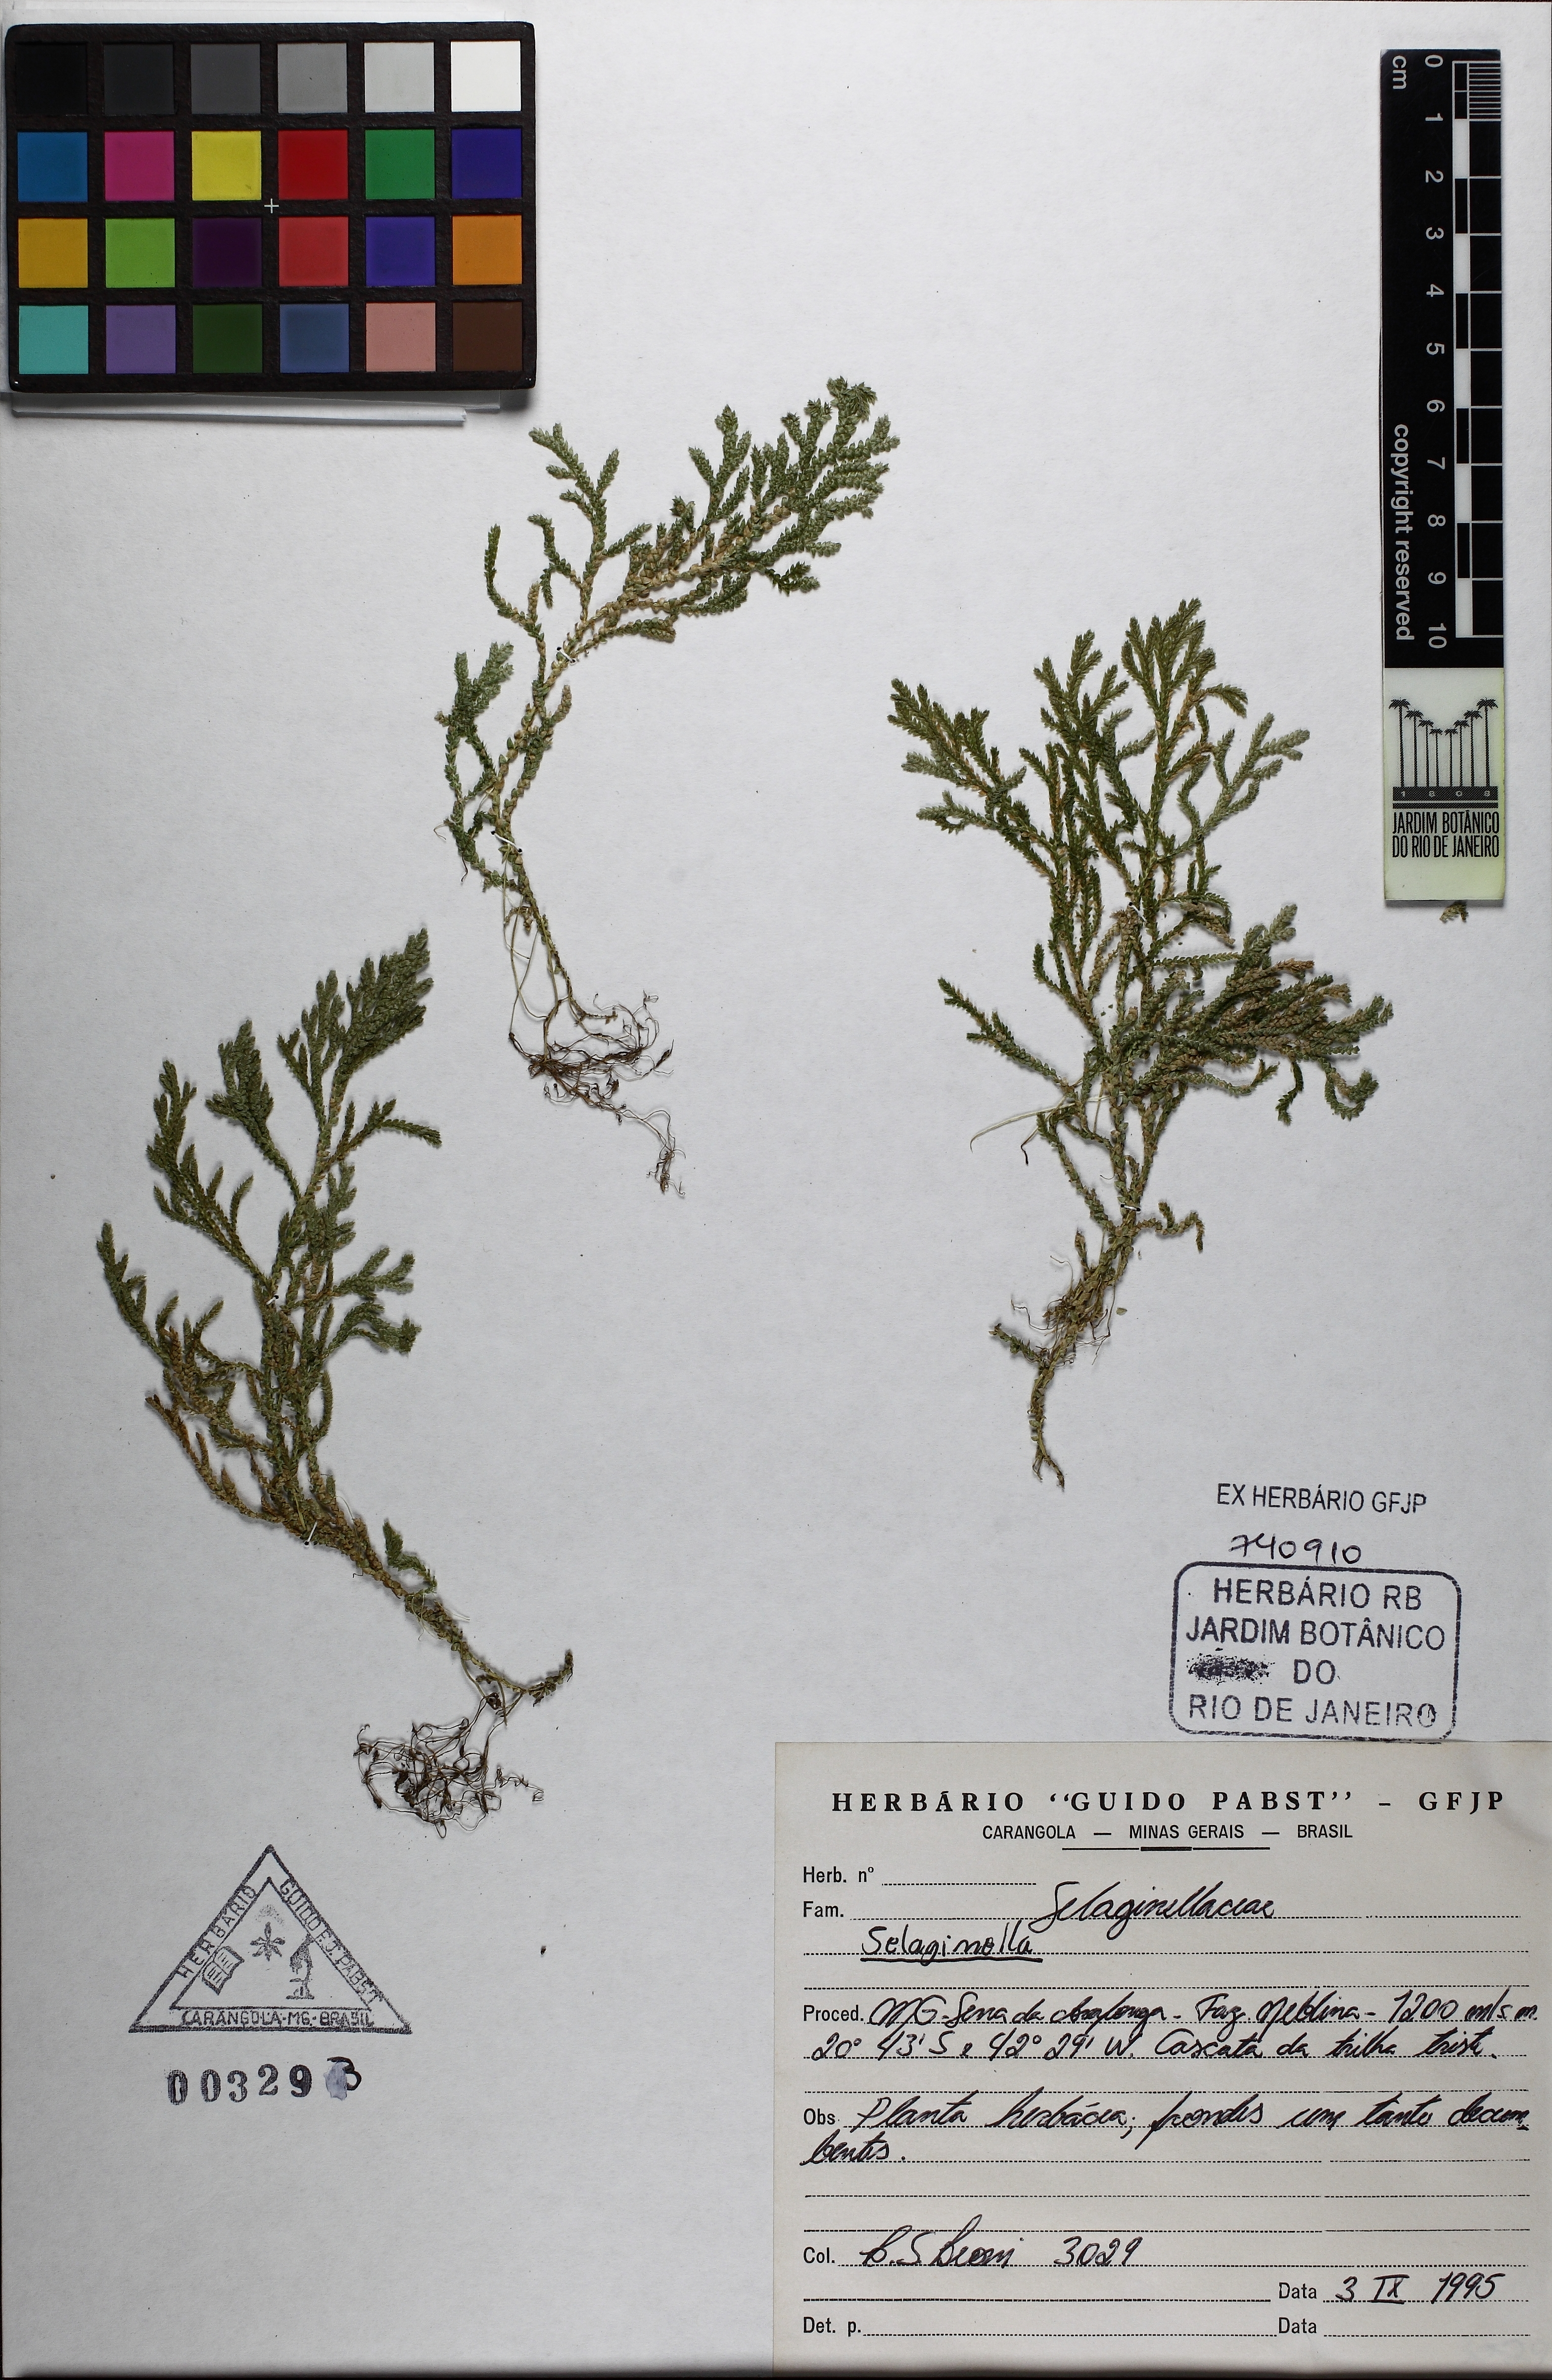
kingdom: Plantae
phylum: Tracheophyta
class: Lycopodiopsida
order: Selaginellales
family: Selaginellaceae
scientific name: Selaginellaceae
